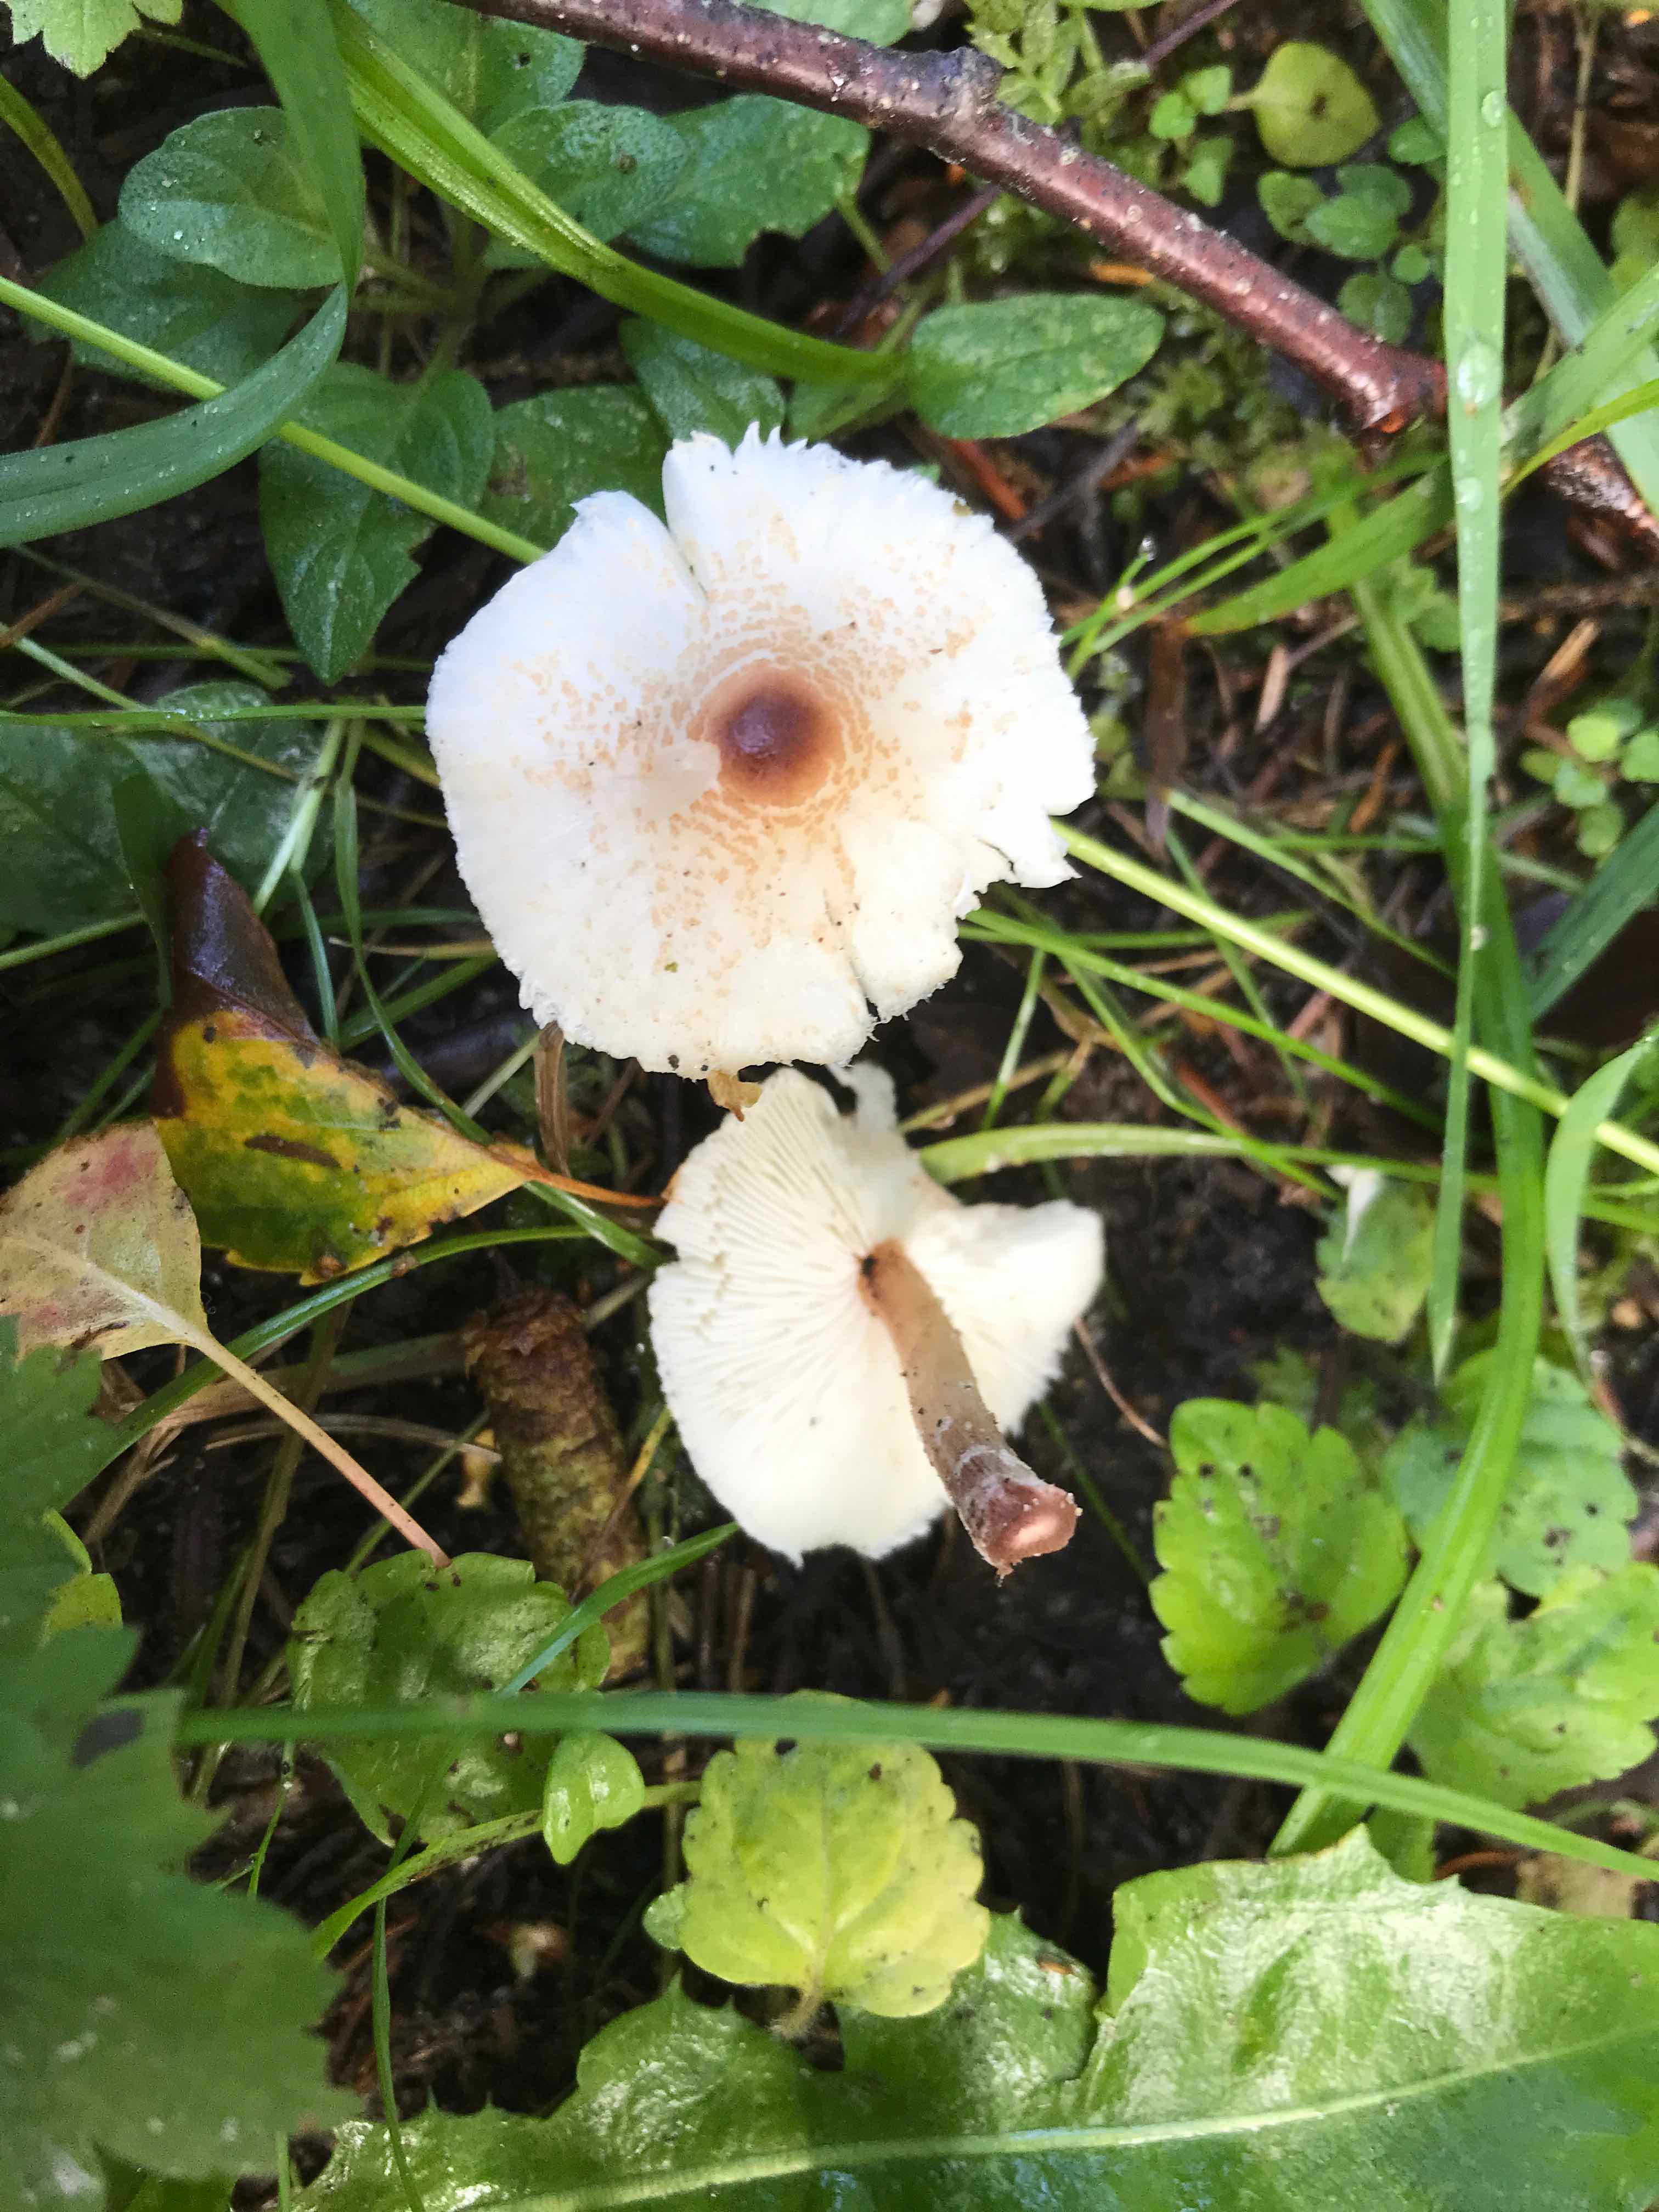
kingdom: Fungi
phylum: Basidiomycota
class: Agaricomycetes
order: Agaricales
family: Agaricaceae
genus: Lepiota
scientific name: Lepiota cristata
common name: stinkende parasolhat
